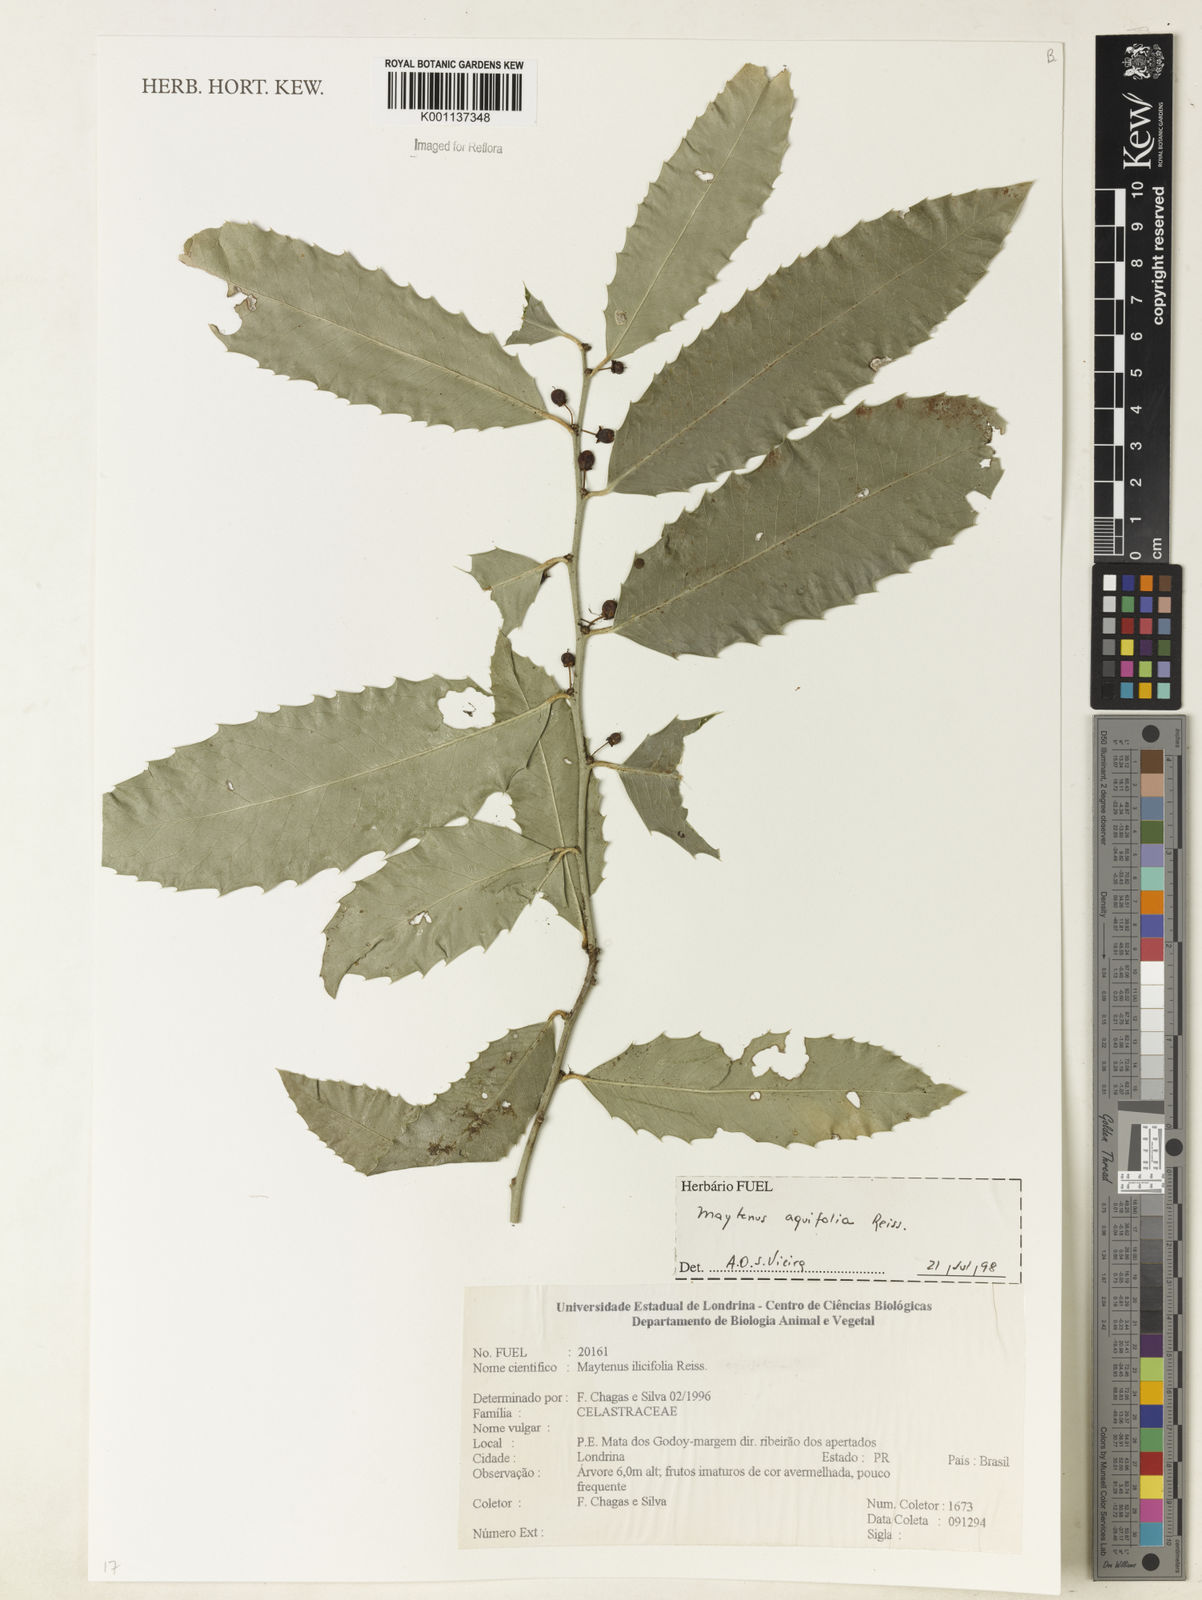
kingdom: Plantae
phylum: Tracheophyta
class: Magnoliopsida
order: Celastrales
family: Celastraceae
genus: Monteverdia
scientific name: Monteverdia aquifolium
